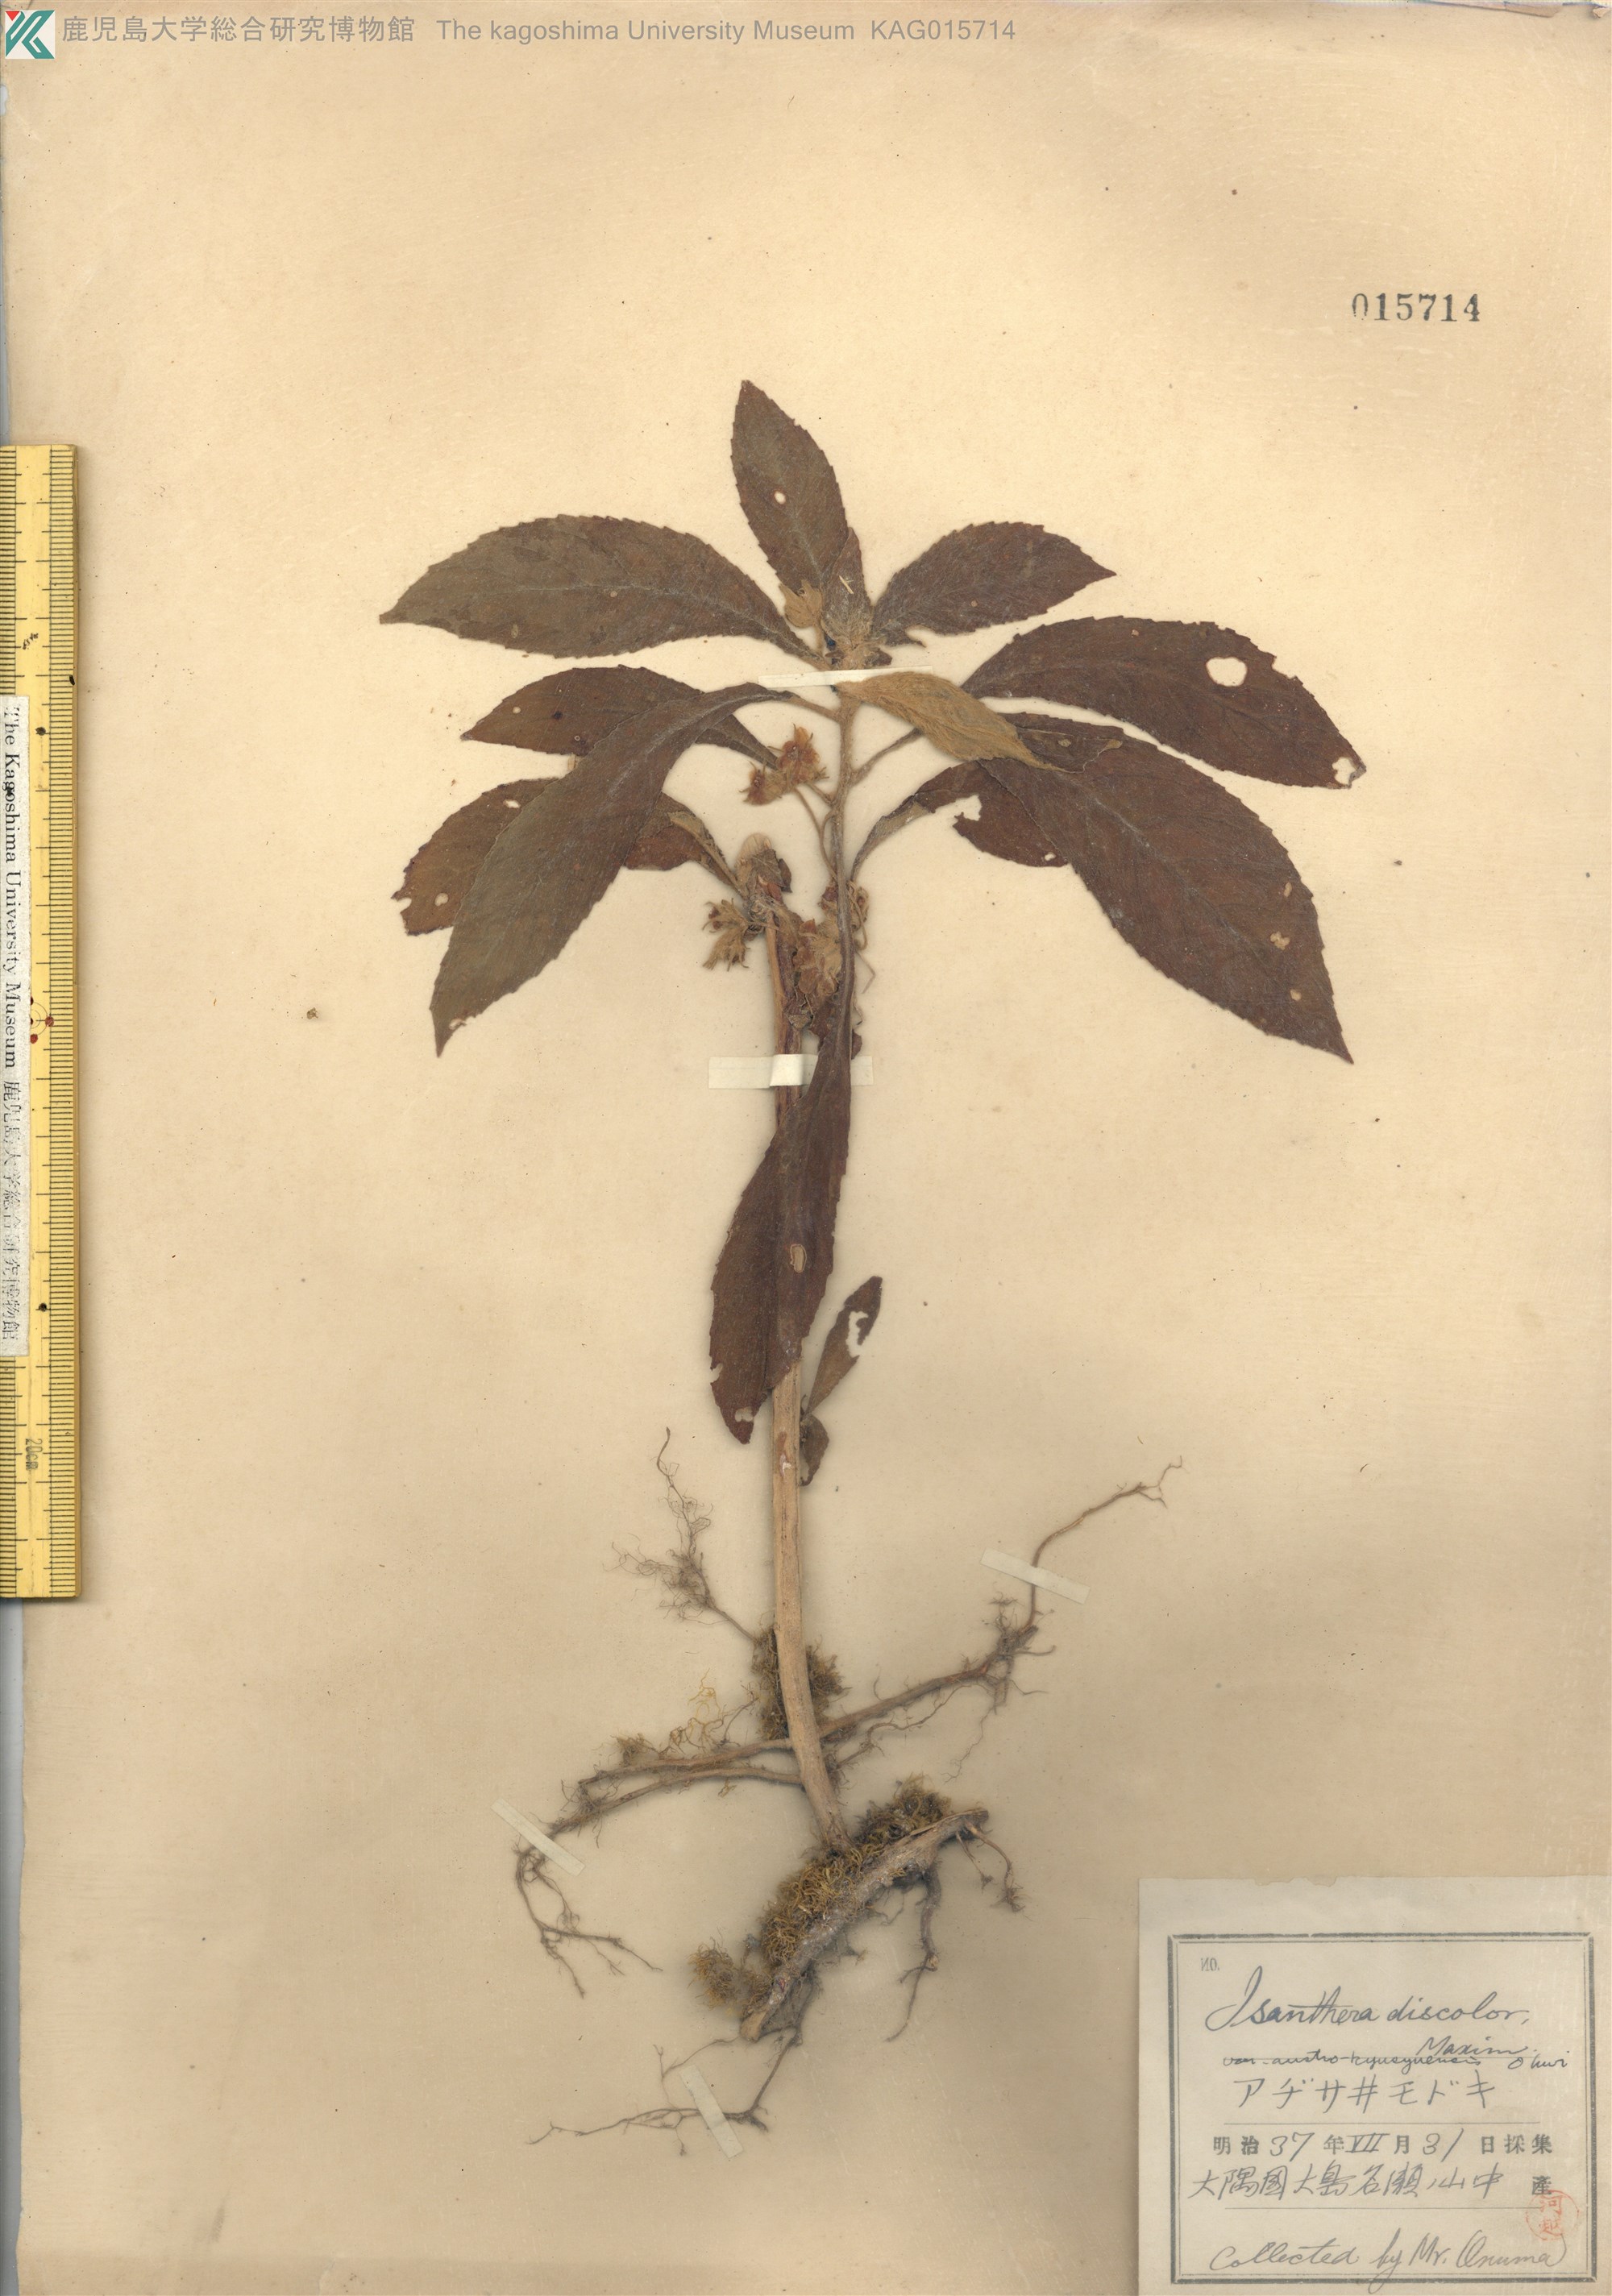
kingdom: Plantae
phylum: Tracheophyta
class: Magnoliopsida
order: Lamiales
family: Gesneriaceae
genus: Rhynchotechum
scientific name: Rhynchotechum discolor
